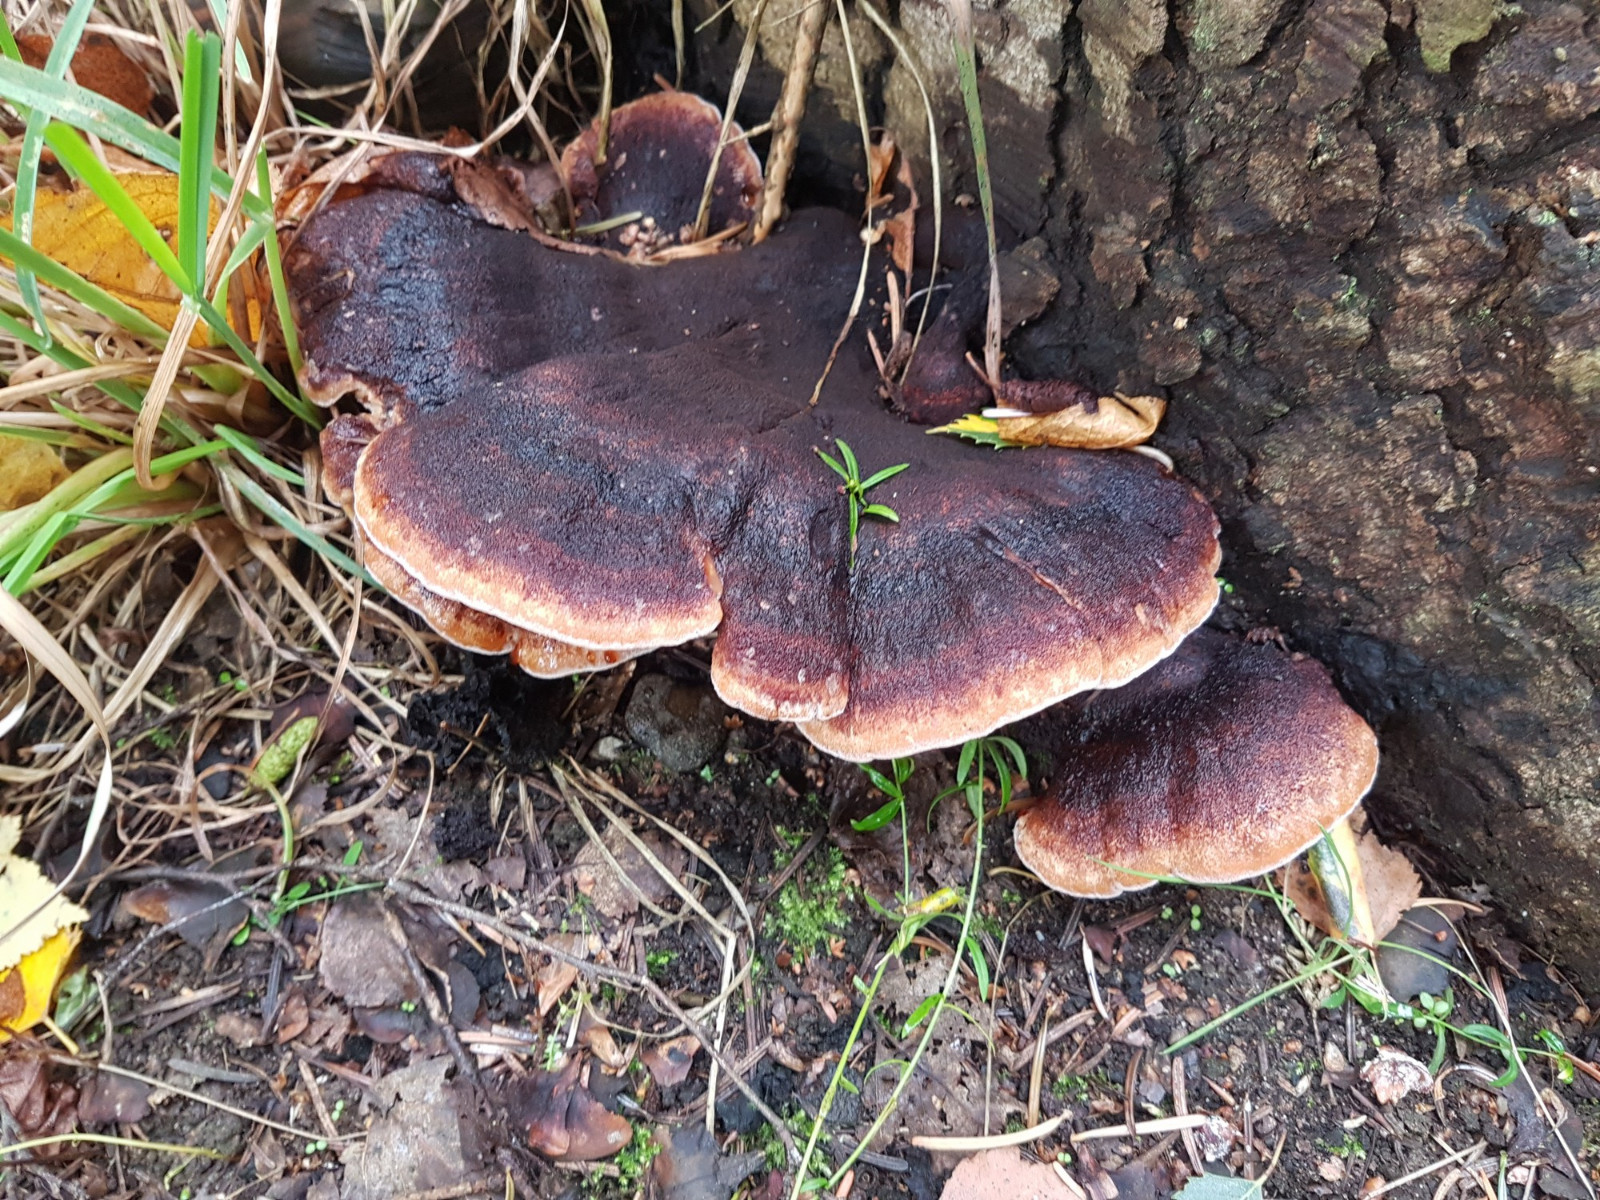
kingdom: Fungi
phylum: Basidiomycota
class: Agaricomycetes
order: Polyporales
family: Ischnodermataceae
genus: Ischnoderma
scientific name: Ischnoderma benzoinum
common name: gran-tjæreporesvamp
